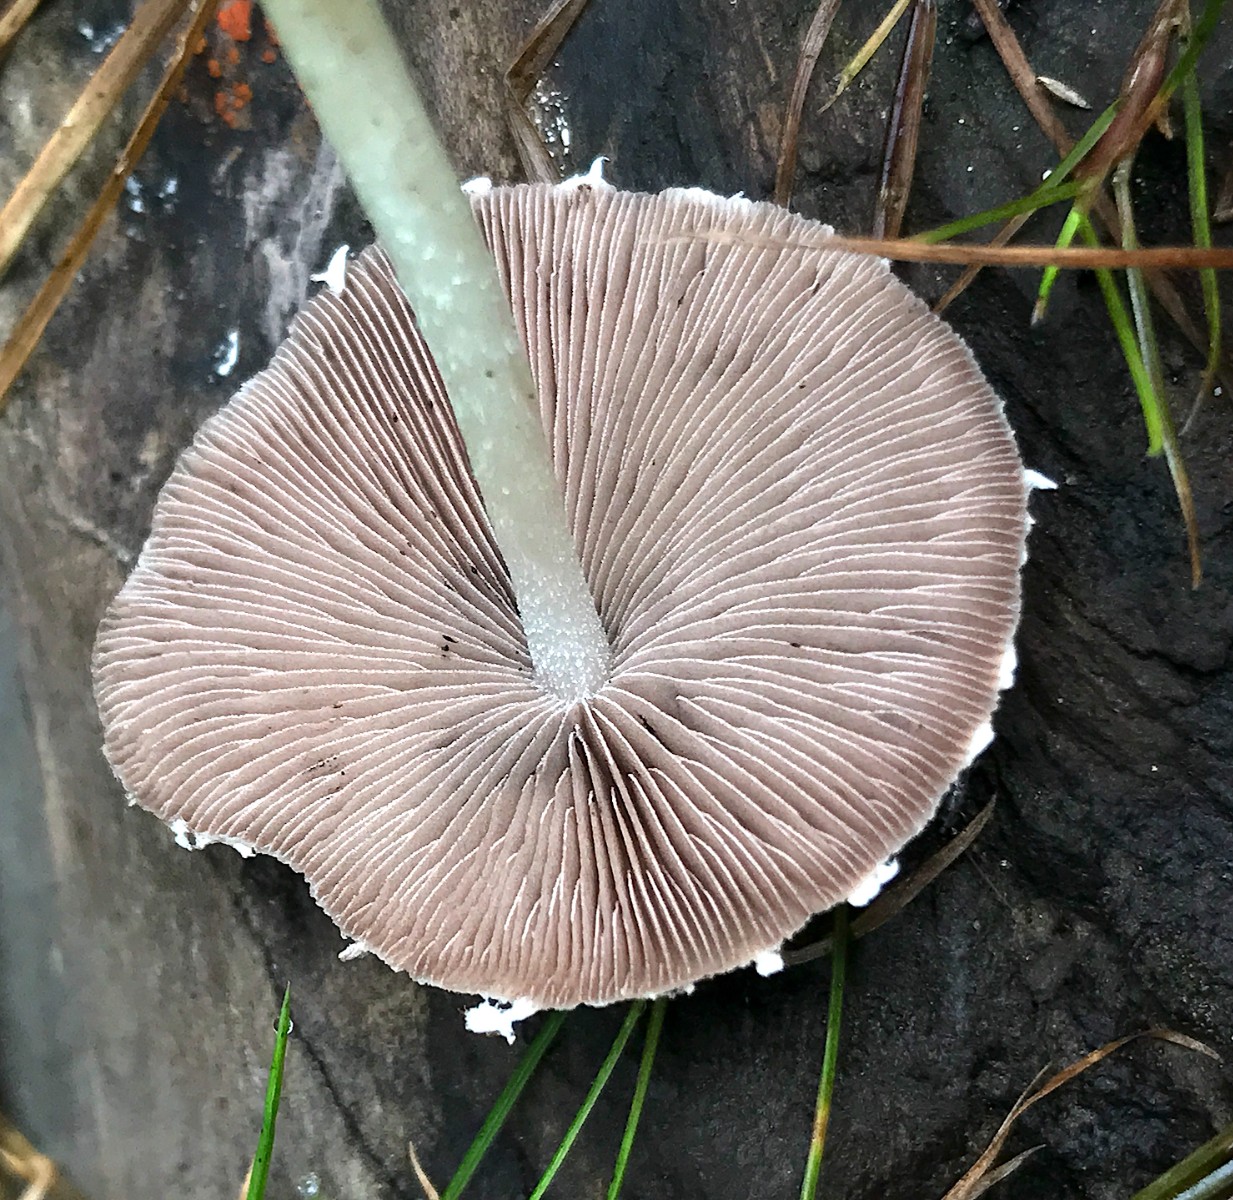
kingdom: Fungi
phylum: Basidiomycota
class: Agaricomycetes
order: Agaricales
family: Psathyrellaceae
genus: Candolleomyces
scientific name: Candolleomyces candolleanus
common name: Candolles mørkhat
